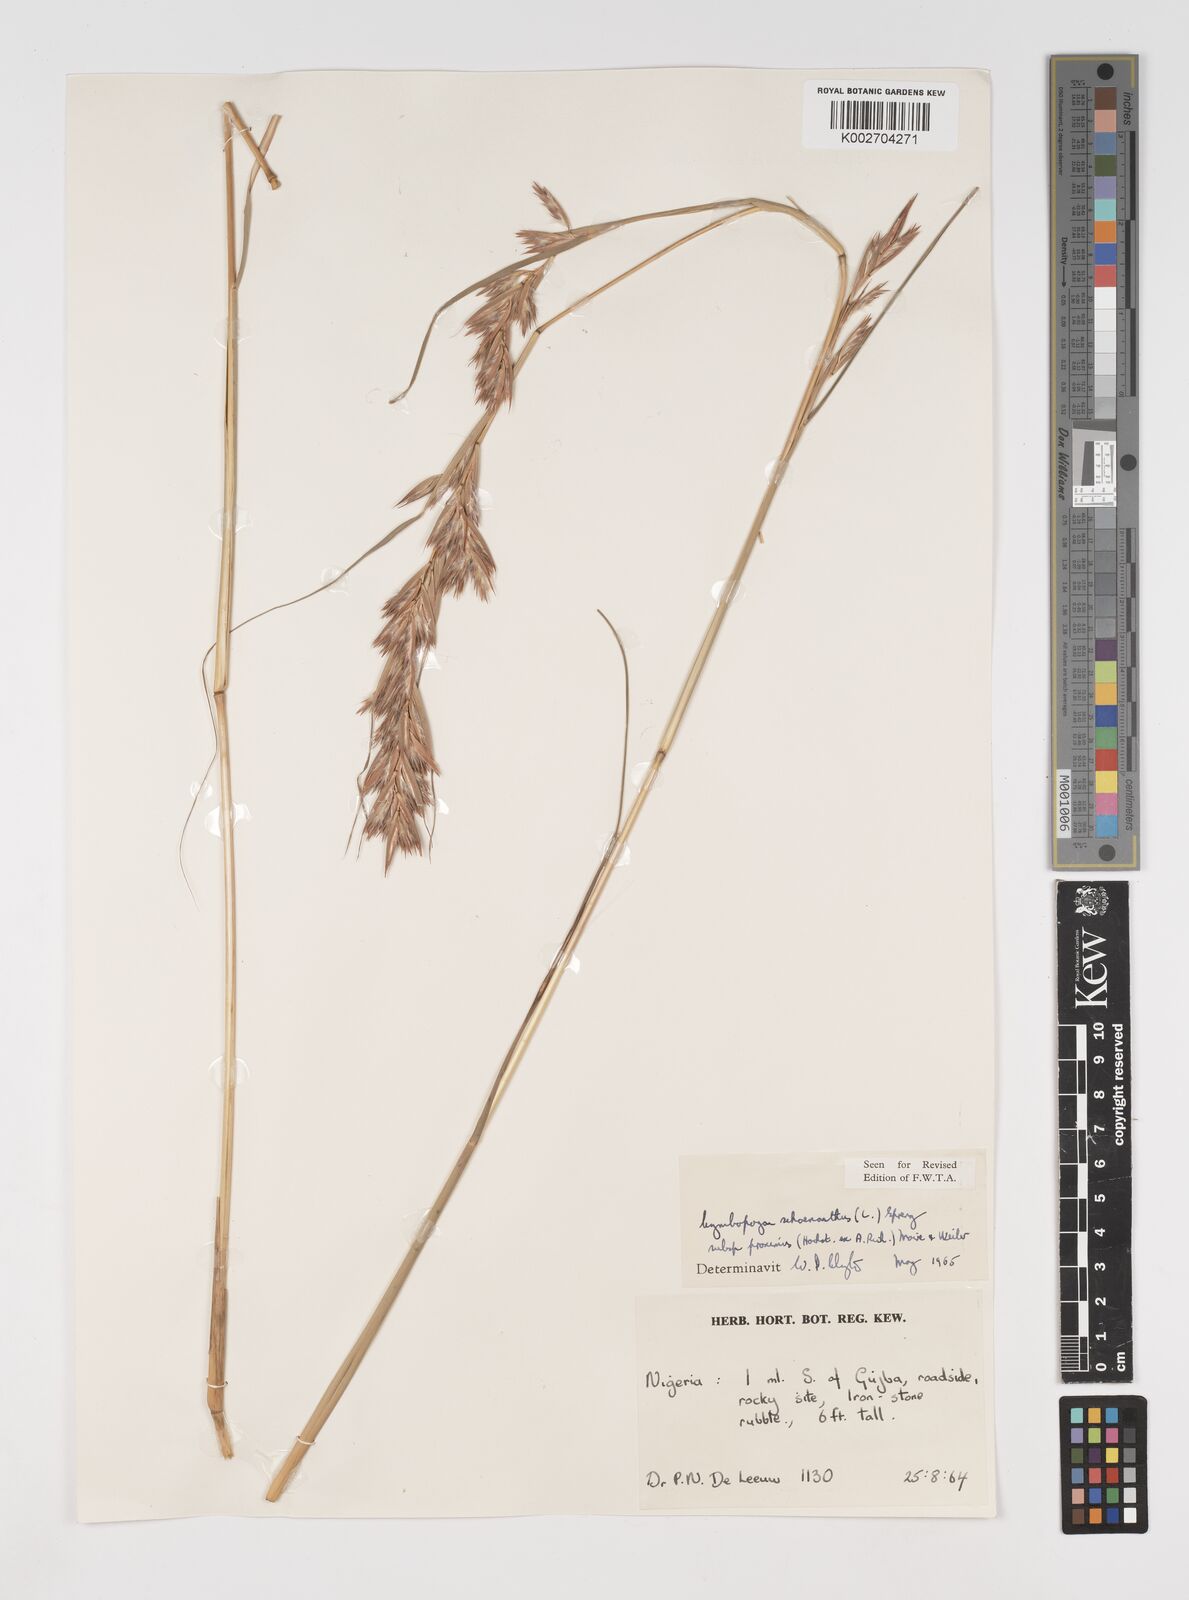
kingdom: Plantae
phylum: Tracheophyta
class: Liliopsida
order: Poales
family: Poaceae
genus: Cymbopogon
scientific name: Cymbopogon schoenanthus
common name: Geranium grass
